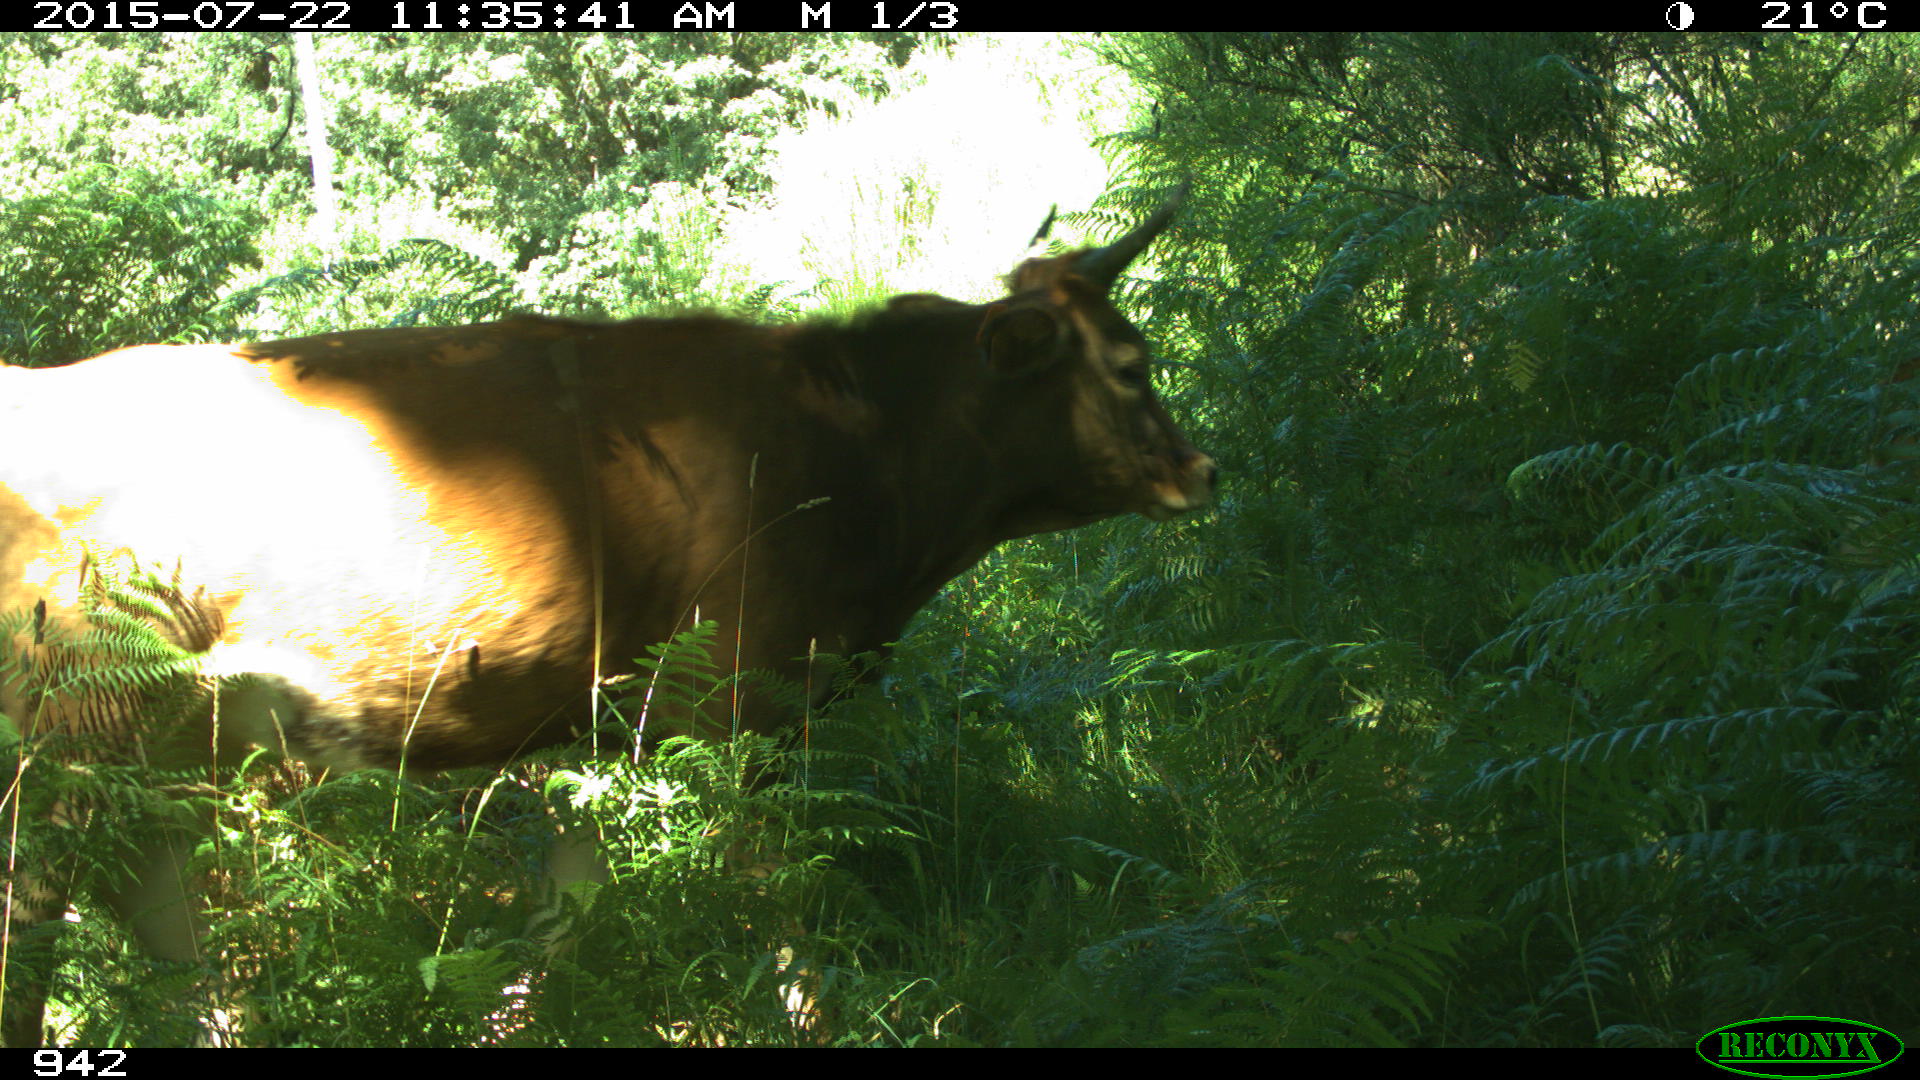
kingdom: Animalia
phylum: Chordata
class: Mammalia
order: Artiodactyla
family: Bovidae
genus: Bos
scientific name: Bos taurus
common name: Domesticated cattle
